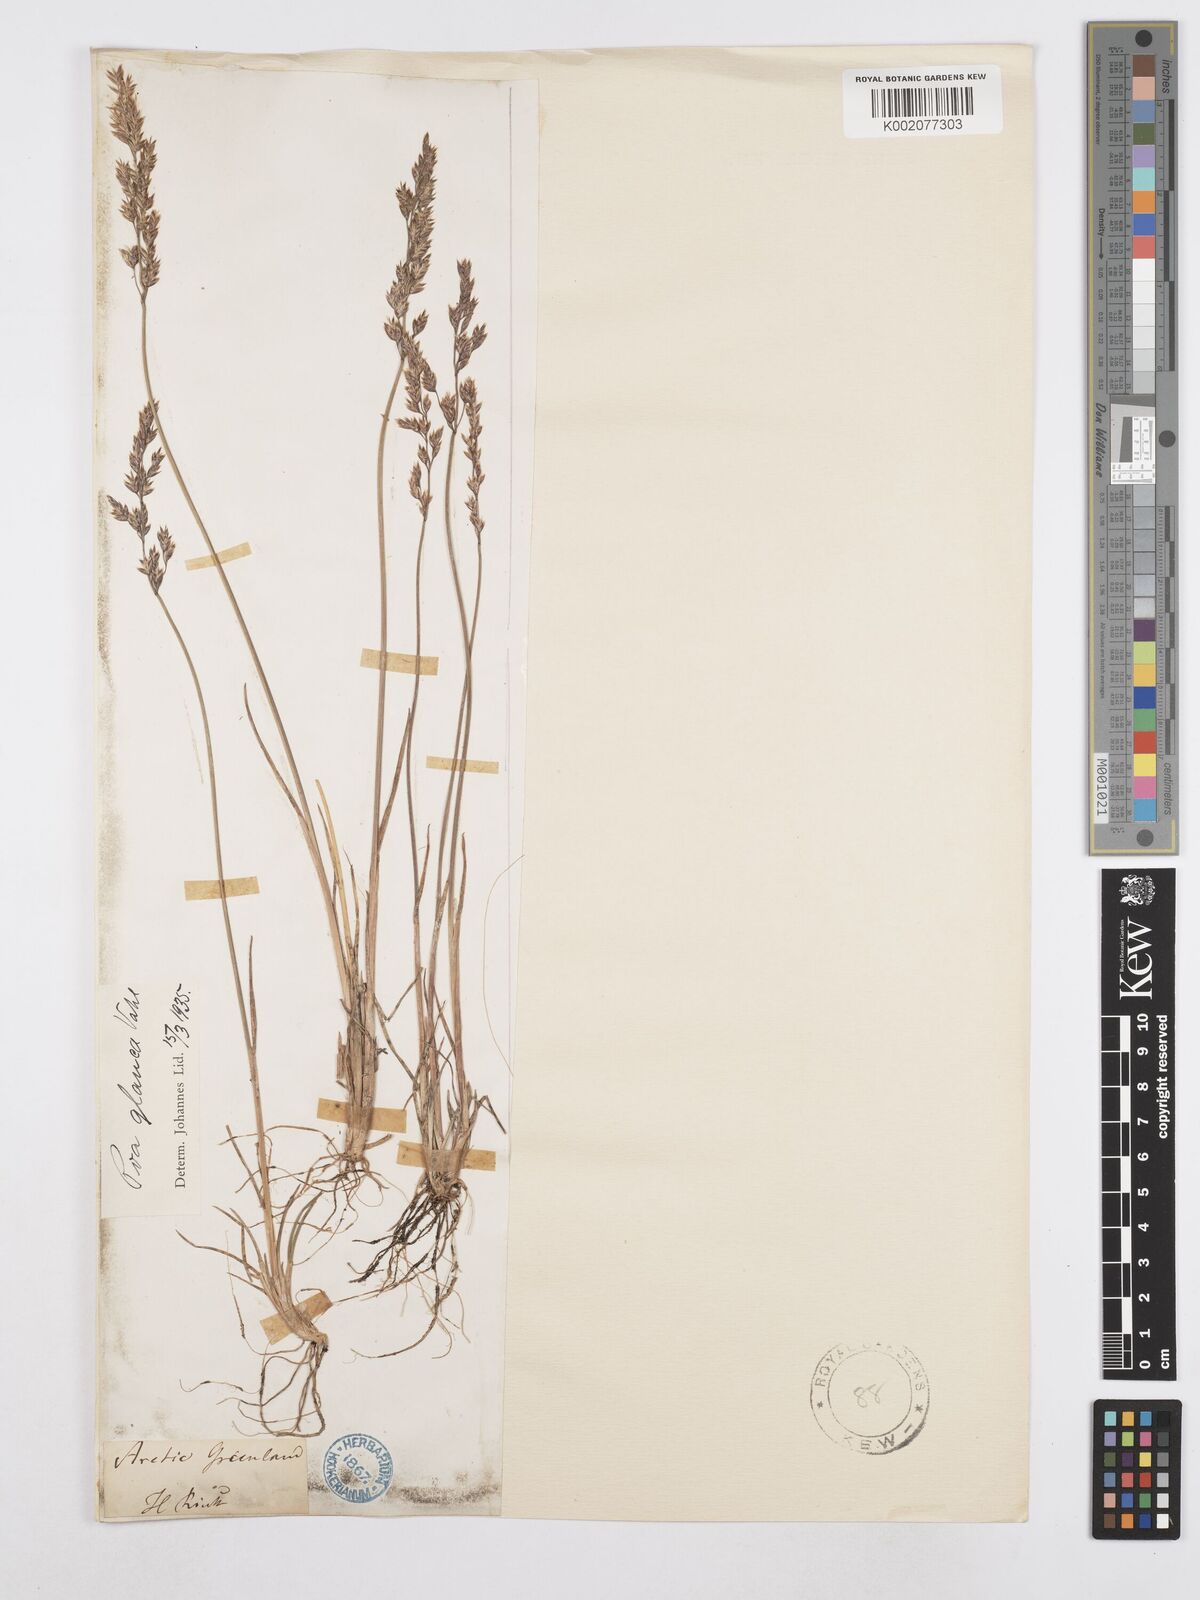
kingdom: Plantae
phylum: Tracheophyta
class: Liliopsida
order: Poales
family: Poaceae
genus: Poa
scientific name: Poa glauca
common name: Glaucous bluegrass
